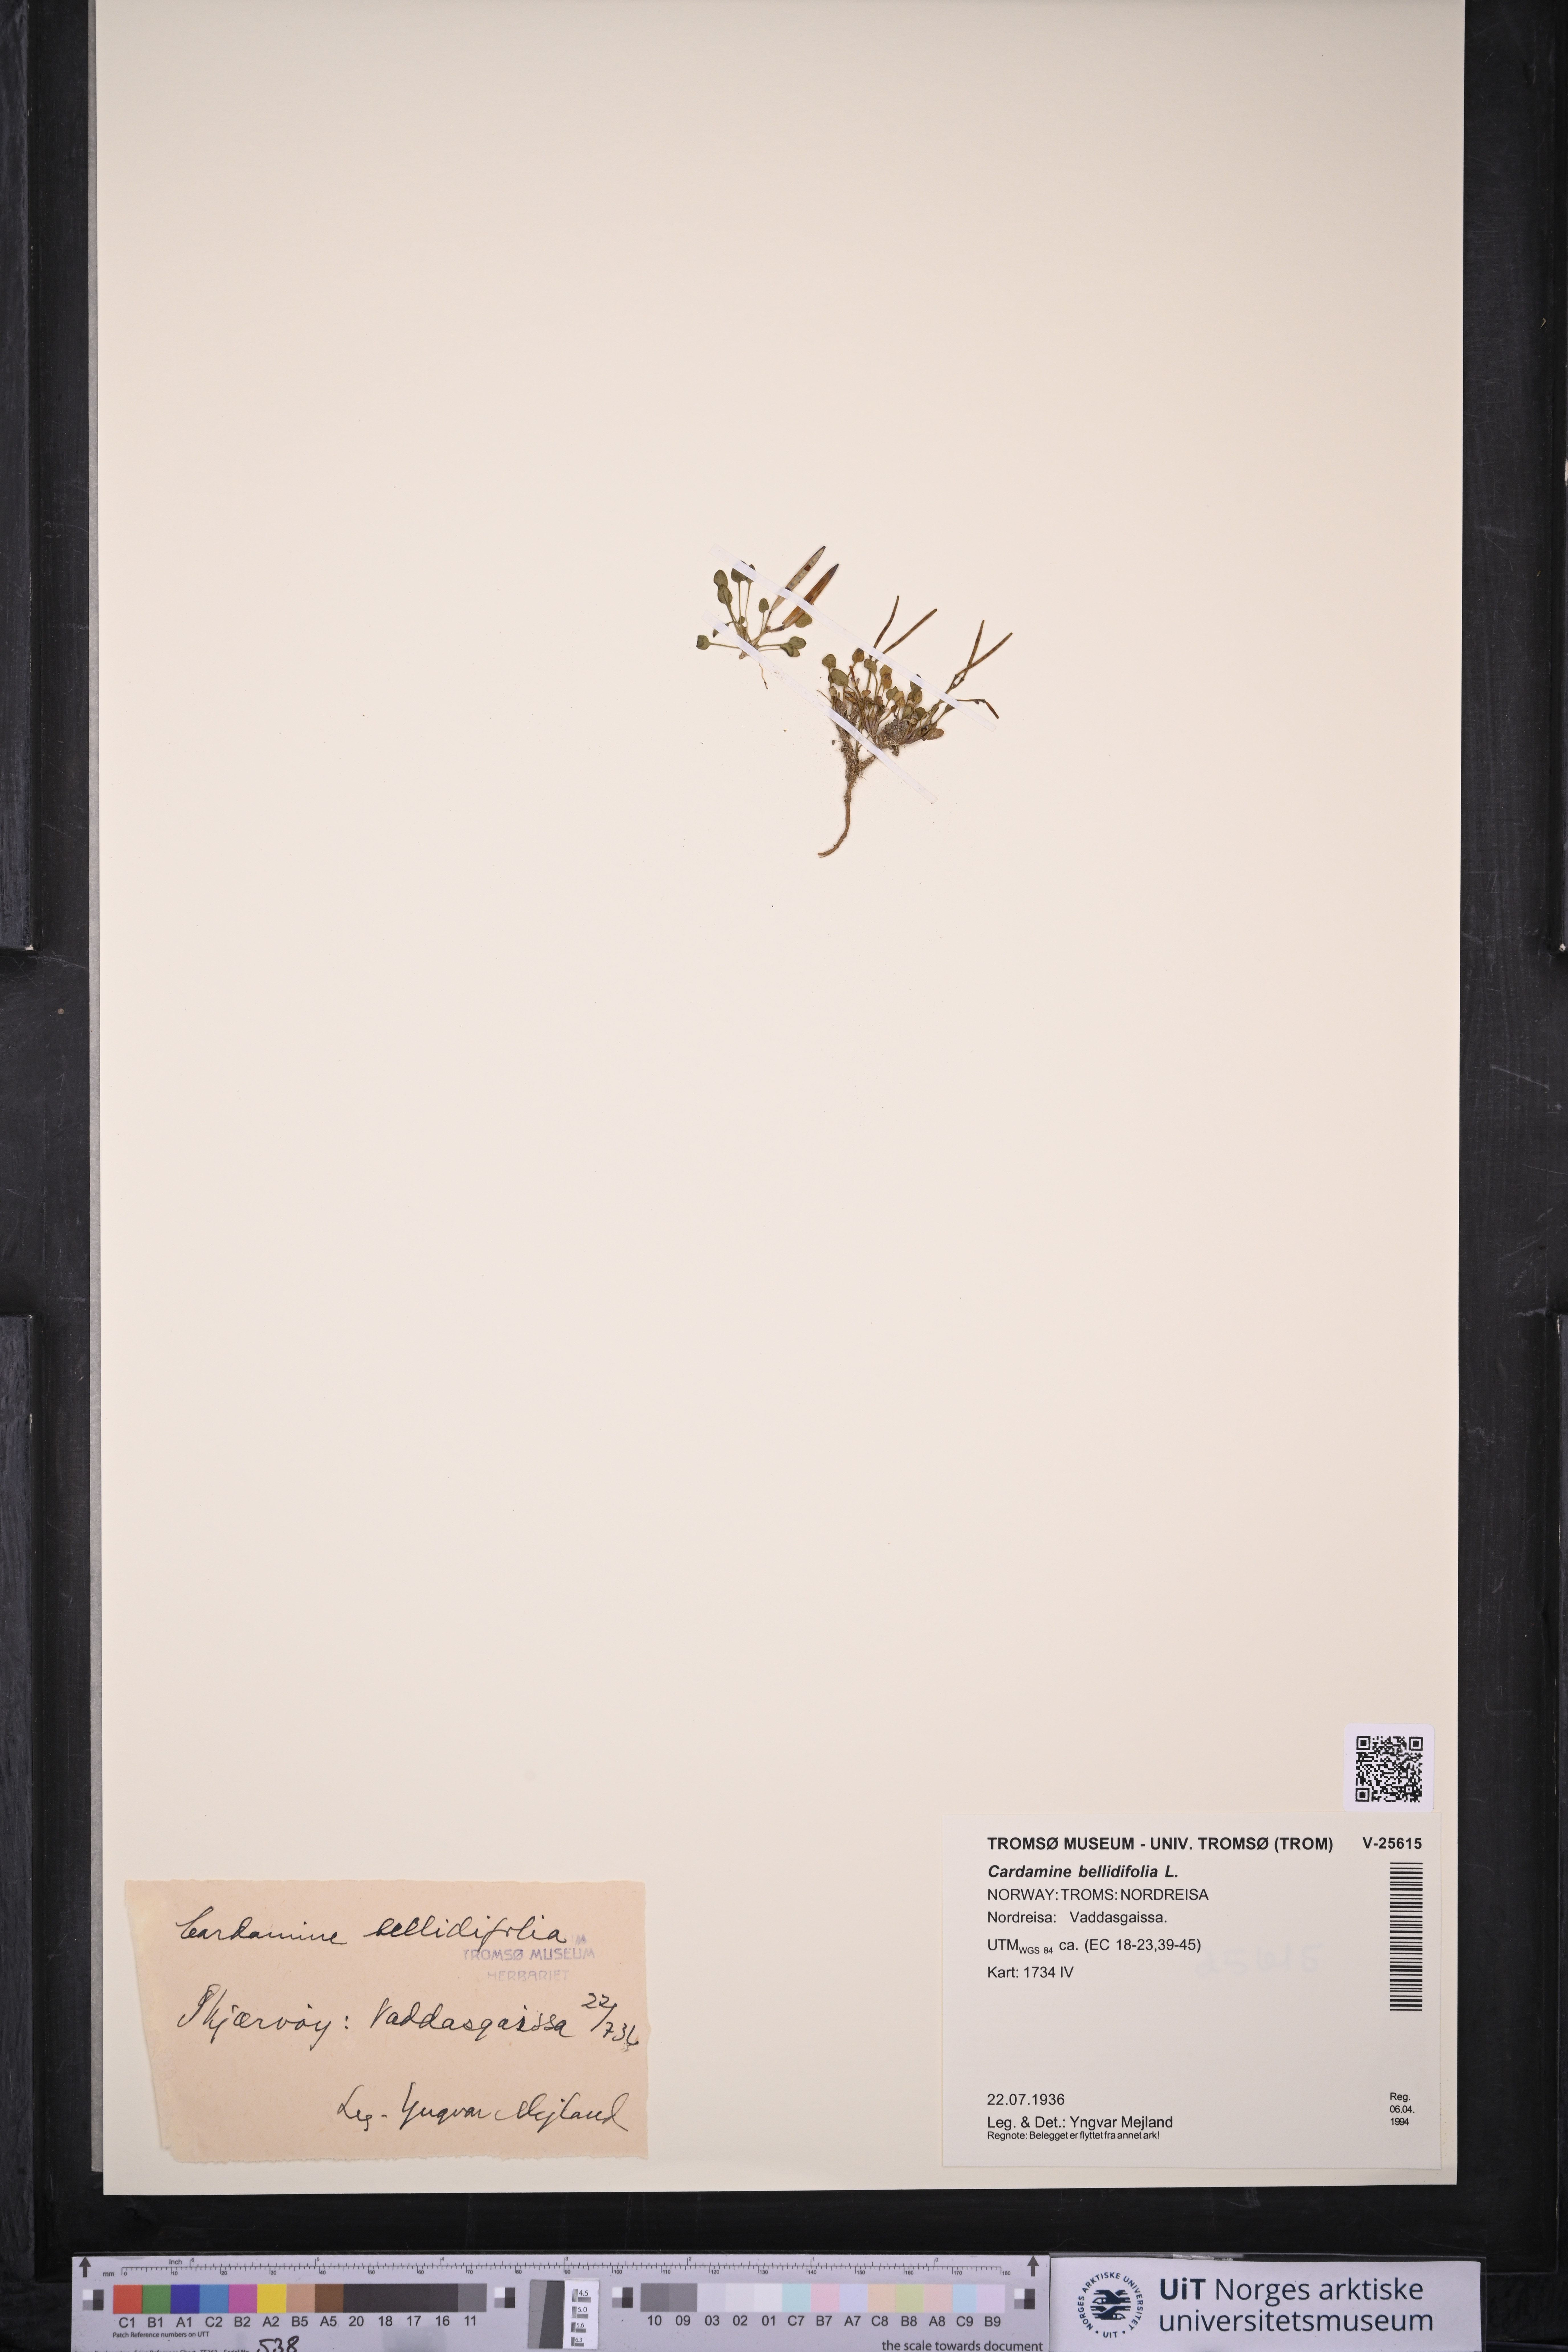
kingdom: Plantae
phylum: Tracheophyta
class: Magnoliopsida
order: Brassicales
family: Brassicaceae
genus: Cardamine
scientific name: Cardamine bellidifolia
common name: Alpine bittercress
